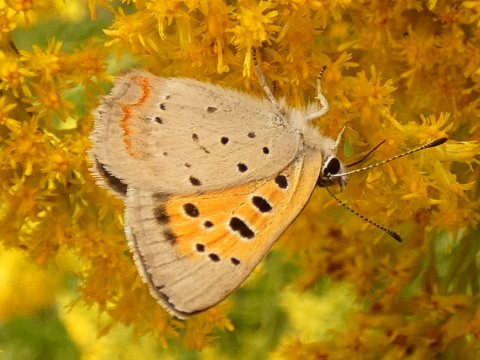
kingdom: Animalia
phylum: Arthropoda
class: Insecta
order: Lepidoptera
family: Lycaenidae
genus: Lycaena
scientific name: Lycaena phlaeas
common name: American Copper
